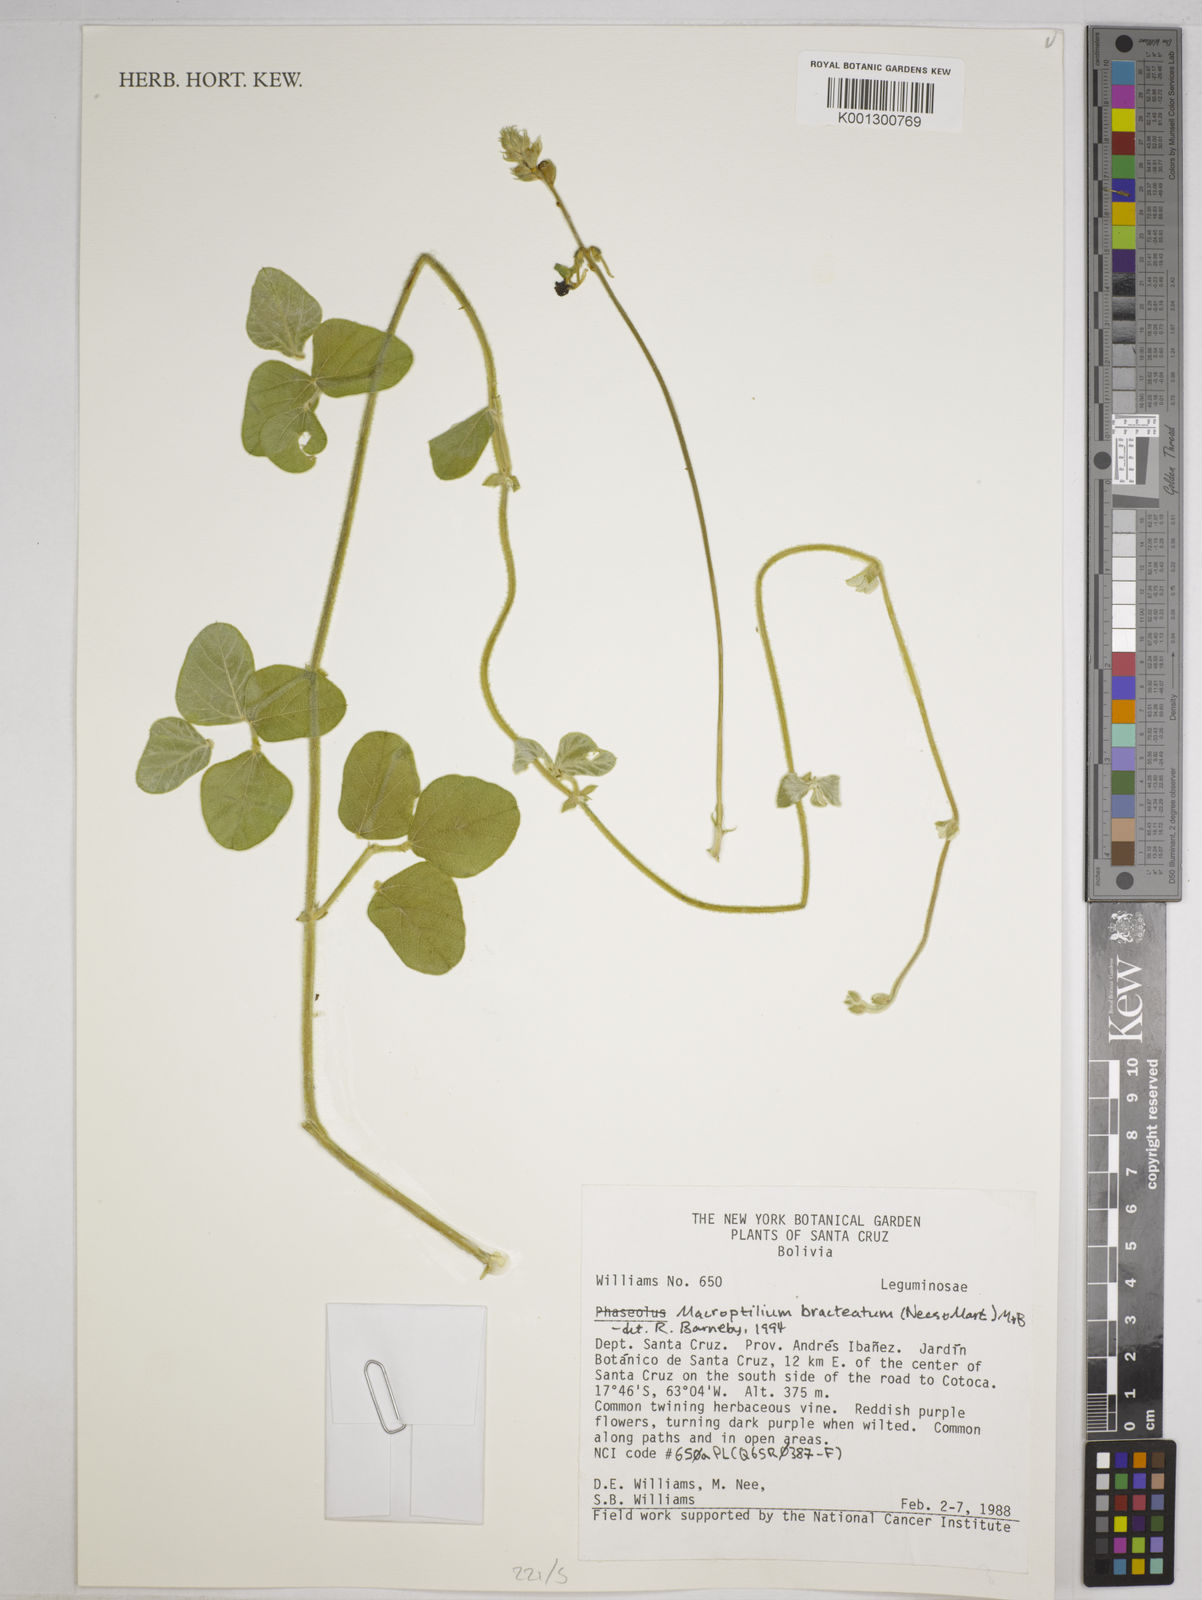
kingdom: Plantae
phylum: Tracheophyta
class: Magnoliopsida
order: Fabales
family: Fabaceae
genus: Macroptilium
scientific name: Macroptilium bracteatum
